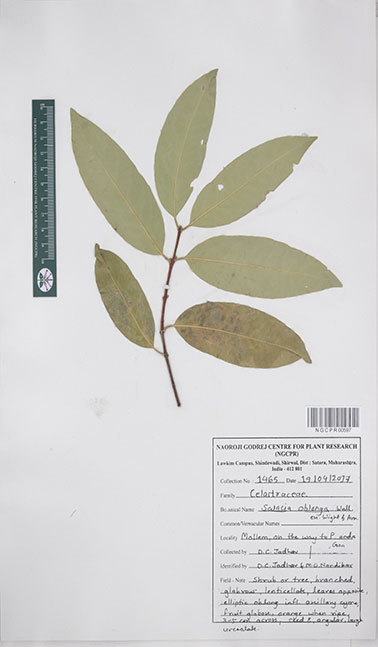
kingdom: Plantae
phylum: Tracheophyta
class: Magnoliopsida
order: Celastrales
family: Celastraceae
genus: Salacia
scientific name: Salacia oblonga
